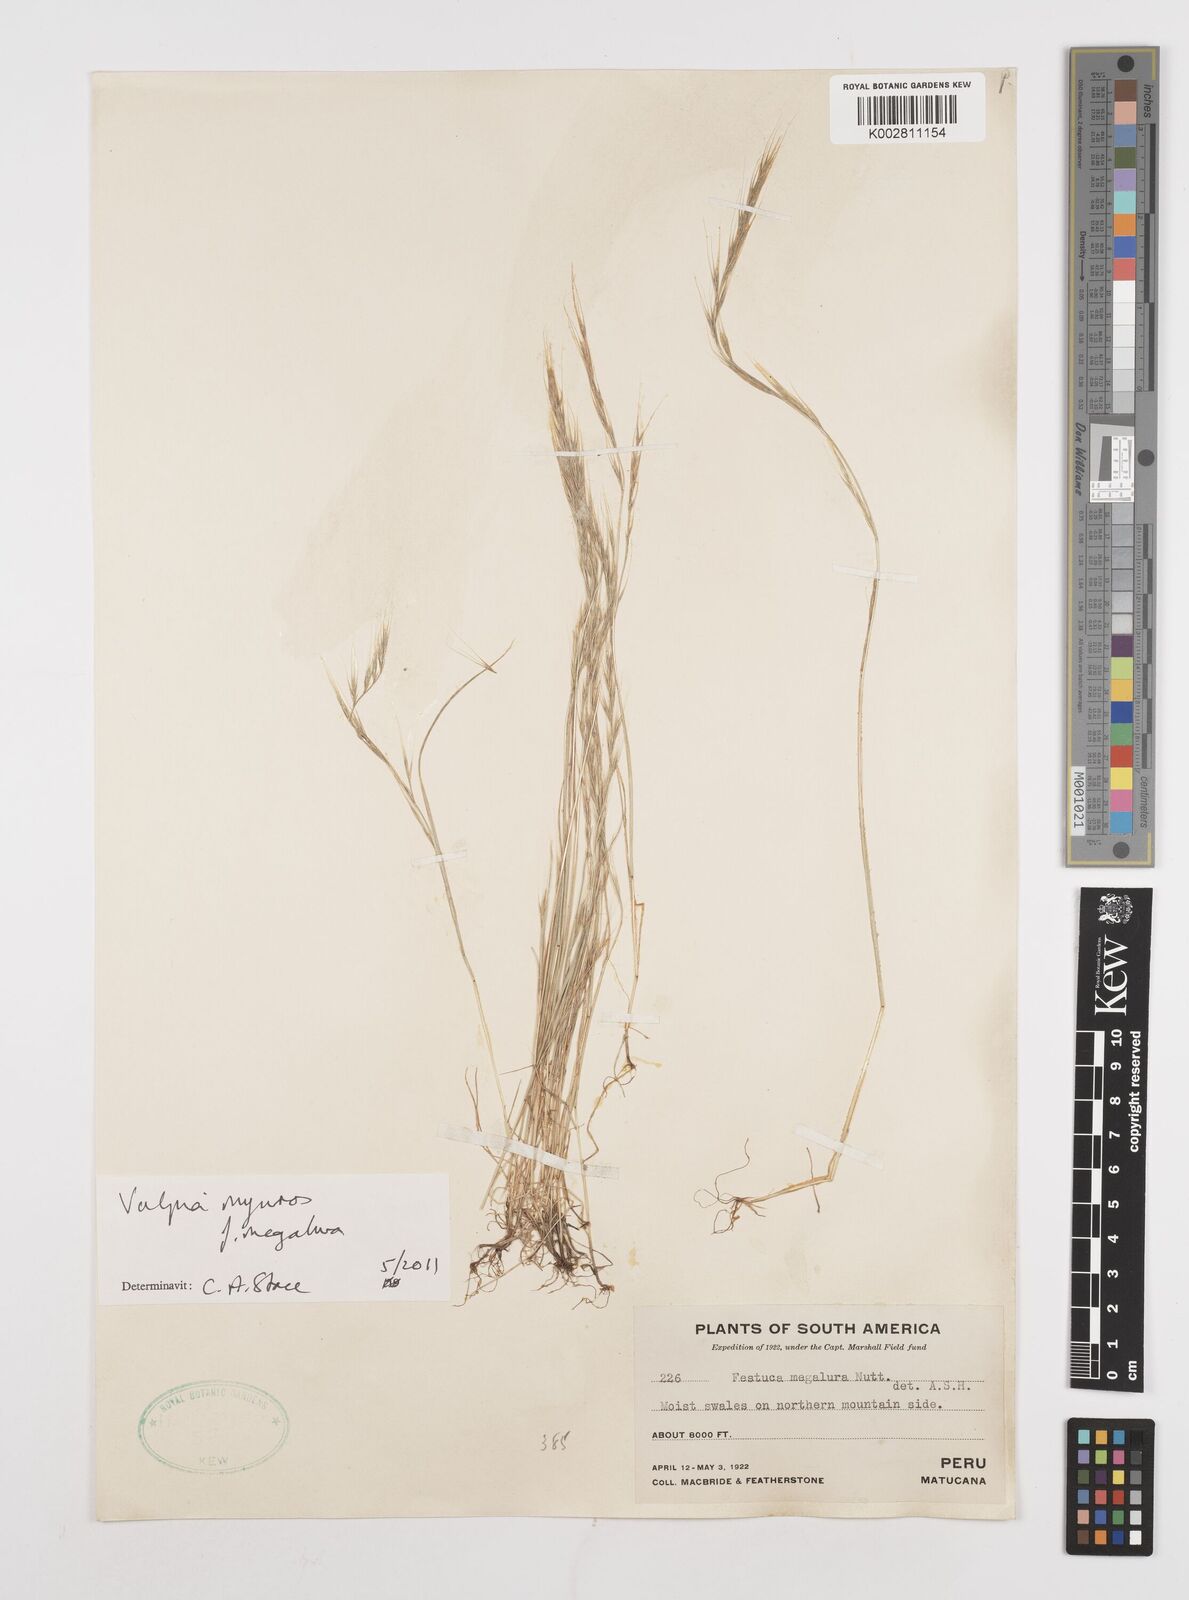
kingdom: Plantae
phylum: Tracheophyta
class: Liliopsida
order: Poales
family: Poaceae
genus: Festuca
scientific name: Festuca myuros
